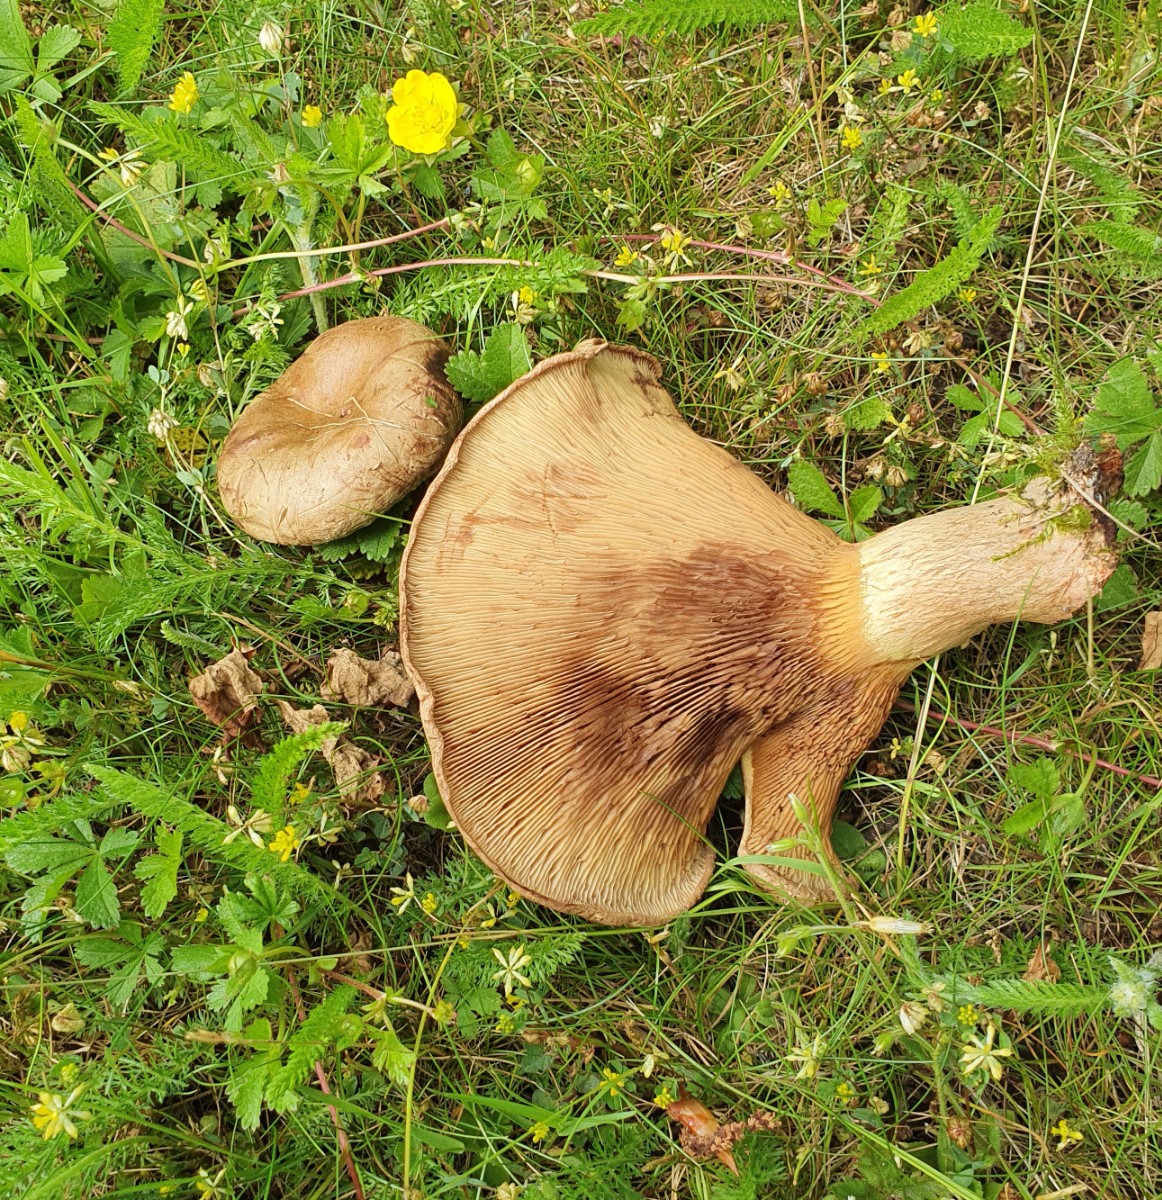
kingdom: Fungi
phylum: Basidiomycota
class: Agaricomycetes
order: Boletales
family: Paxillaceae
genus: Paxillus
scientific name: Paxillus
